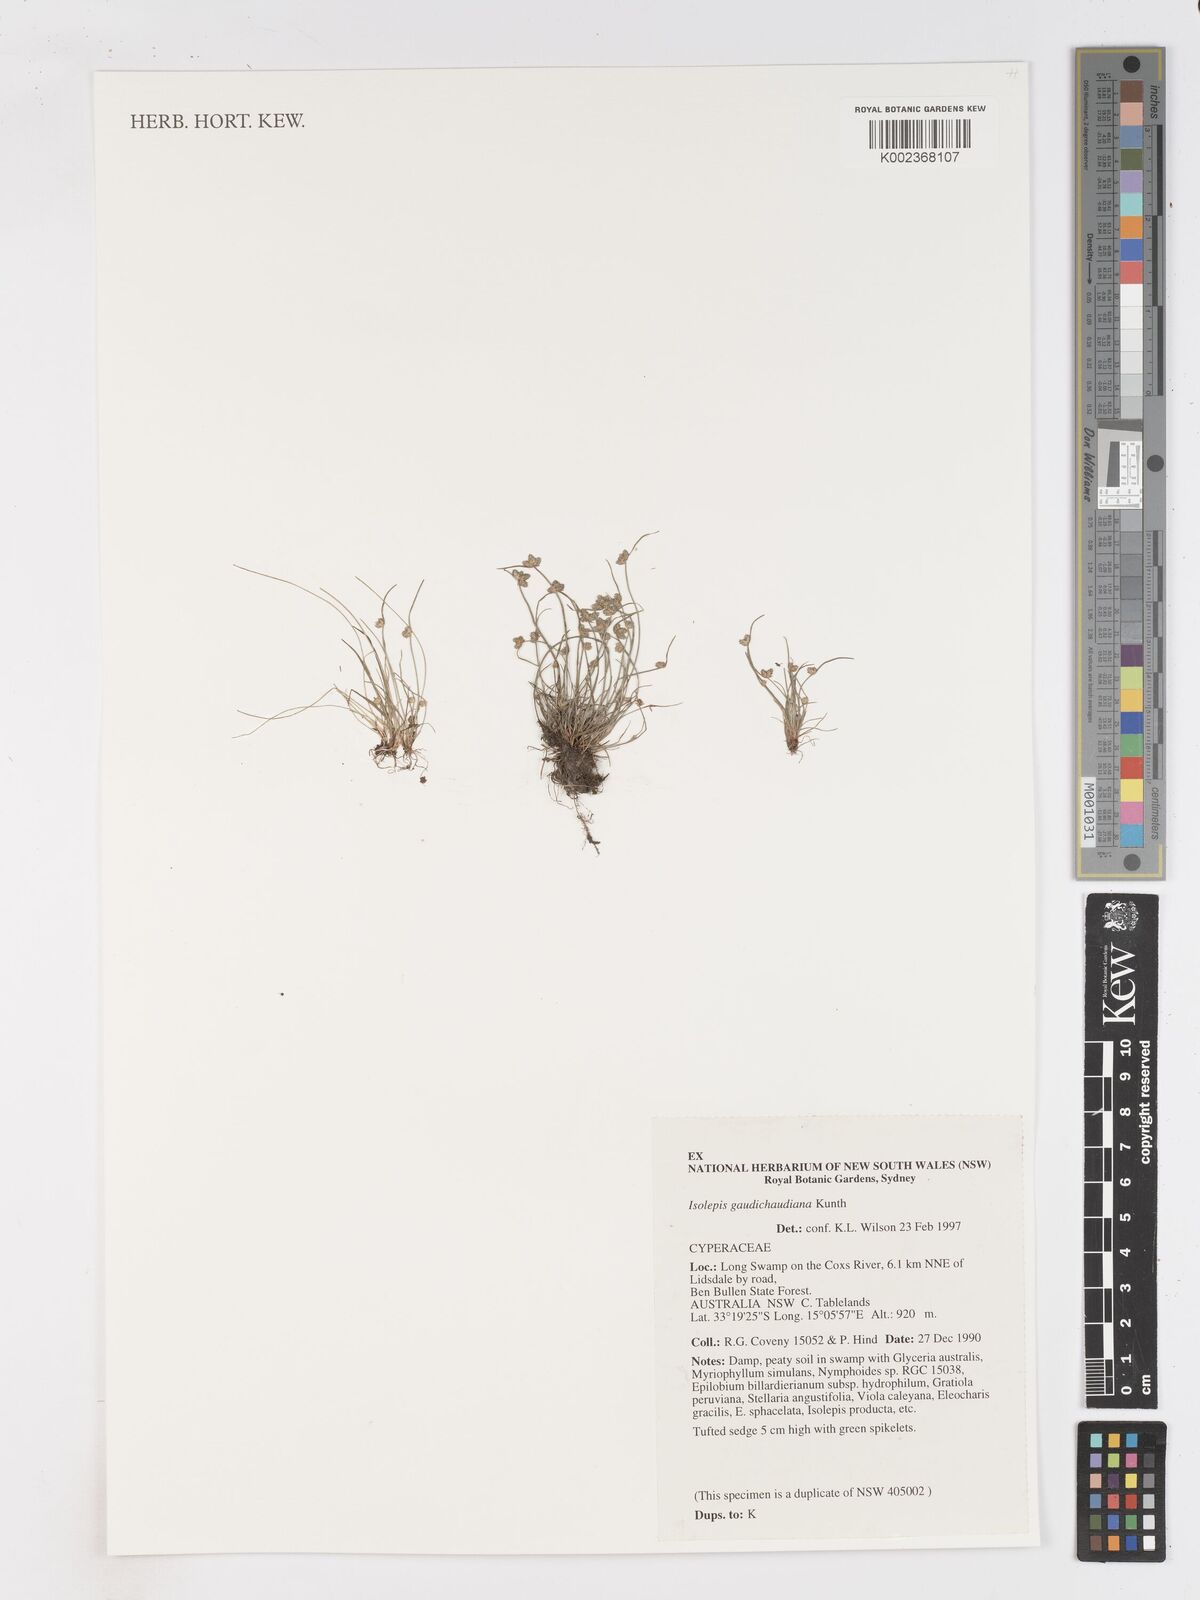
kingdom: Plantae
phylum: Tracheophyta
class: Liliopsida
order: Poales
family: Cyperaceae
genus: Isolepis
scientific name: Isolepis gaudichaudiana
